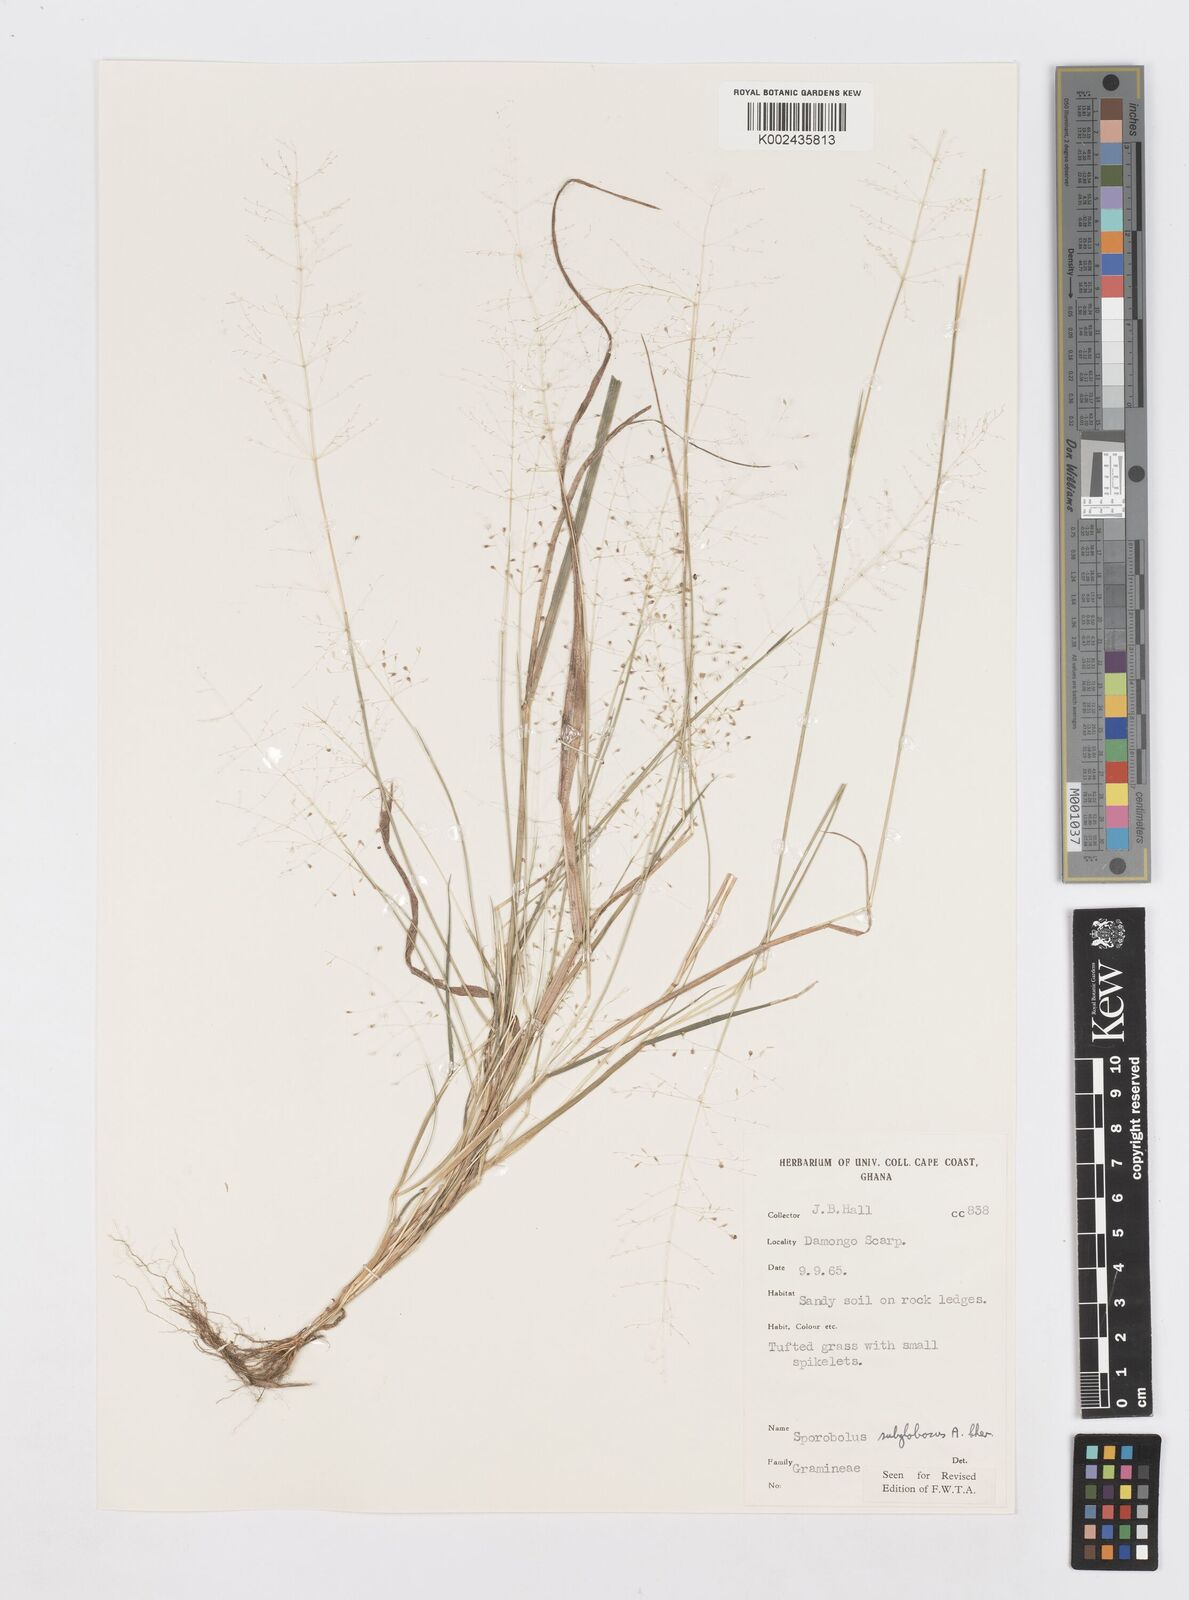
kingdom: Plantae
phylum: Tracheophyta
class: Liliopsida
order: Poales
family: Poaceae
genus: Sporobolus
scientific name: Sporobolus subglobosus
